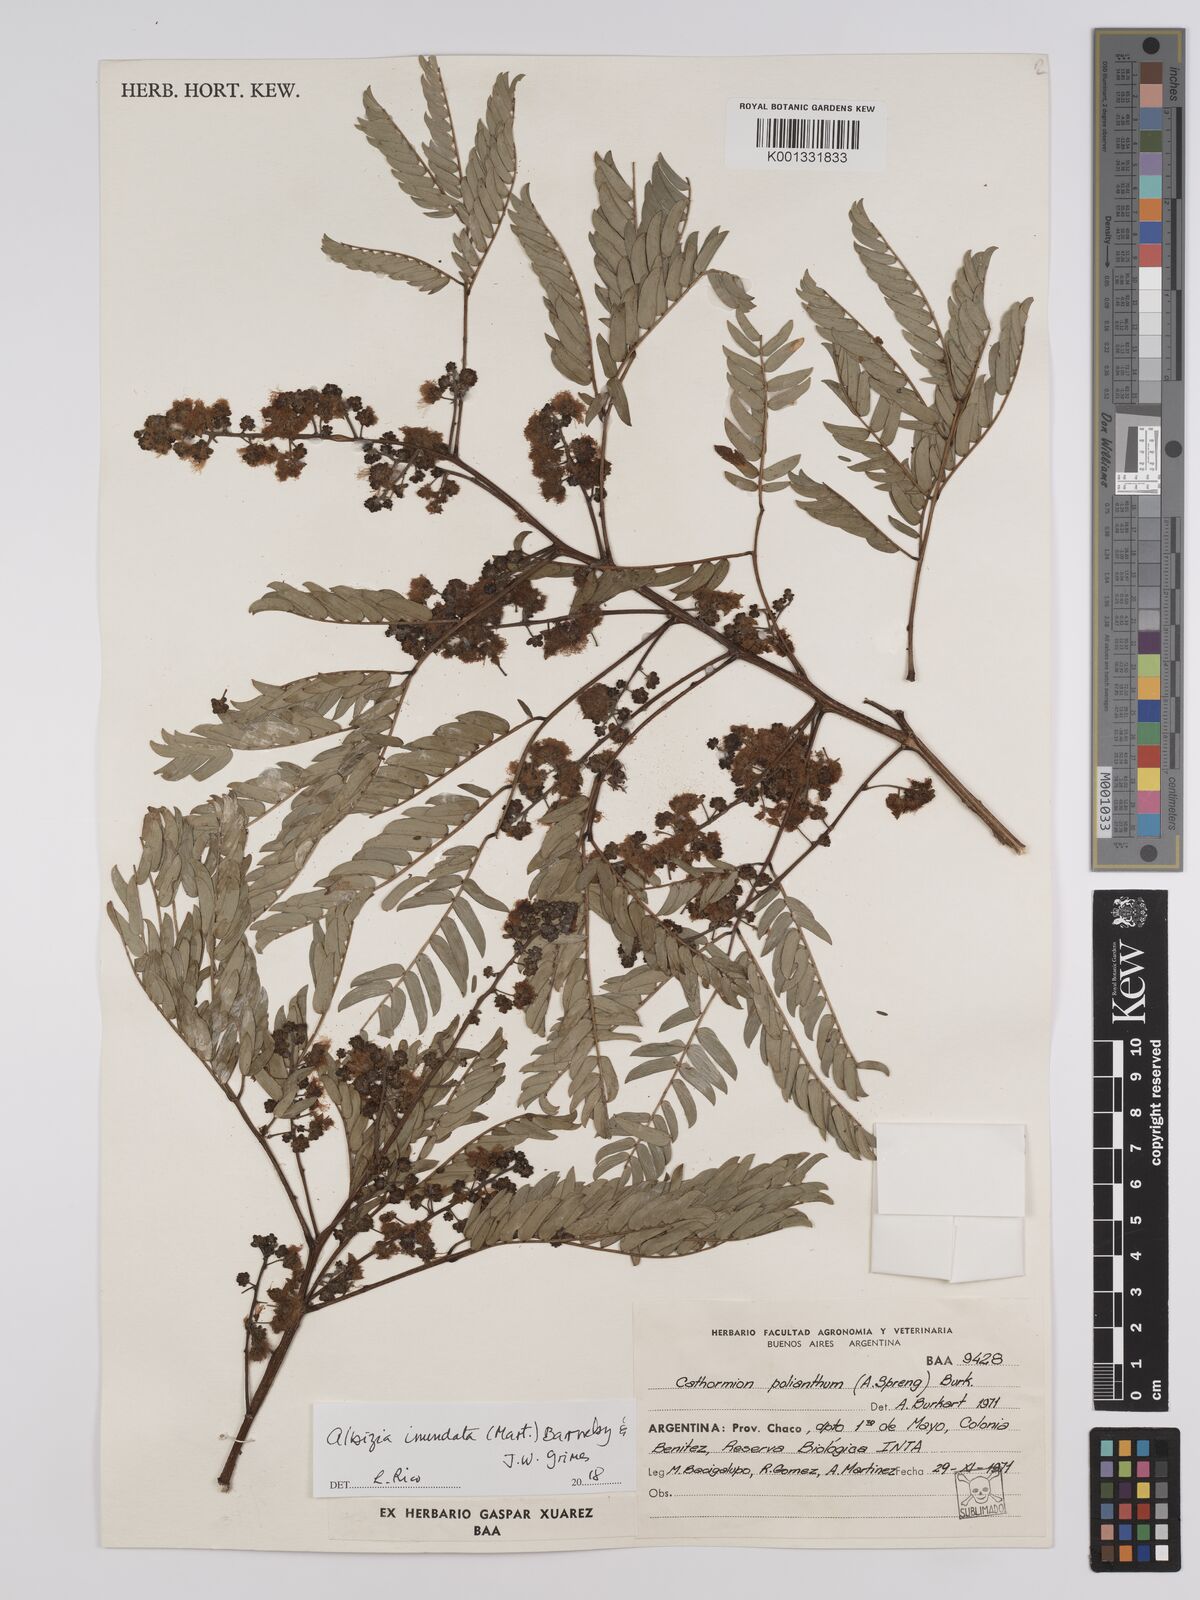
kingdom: Plantae
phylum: Tracheophyta
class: Magnoliopsida
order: Fabales
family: Fabaceae
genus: Albizia
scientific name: Albizia inundata
